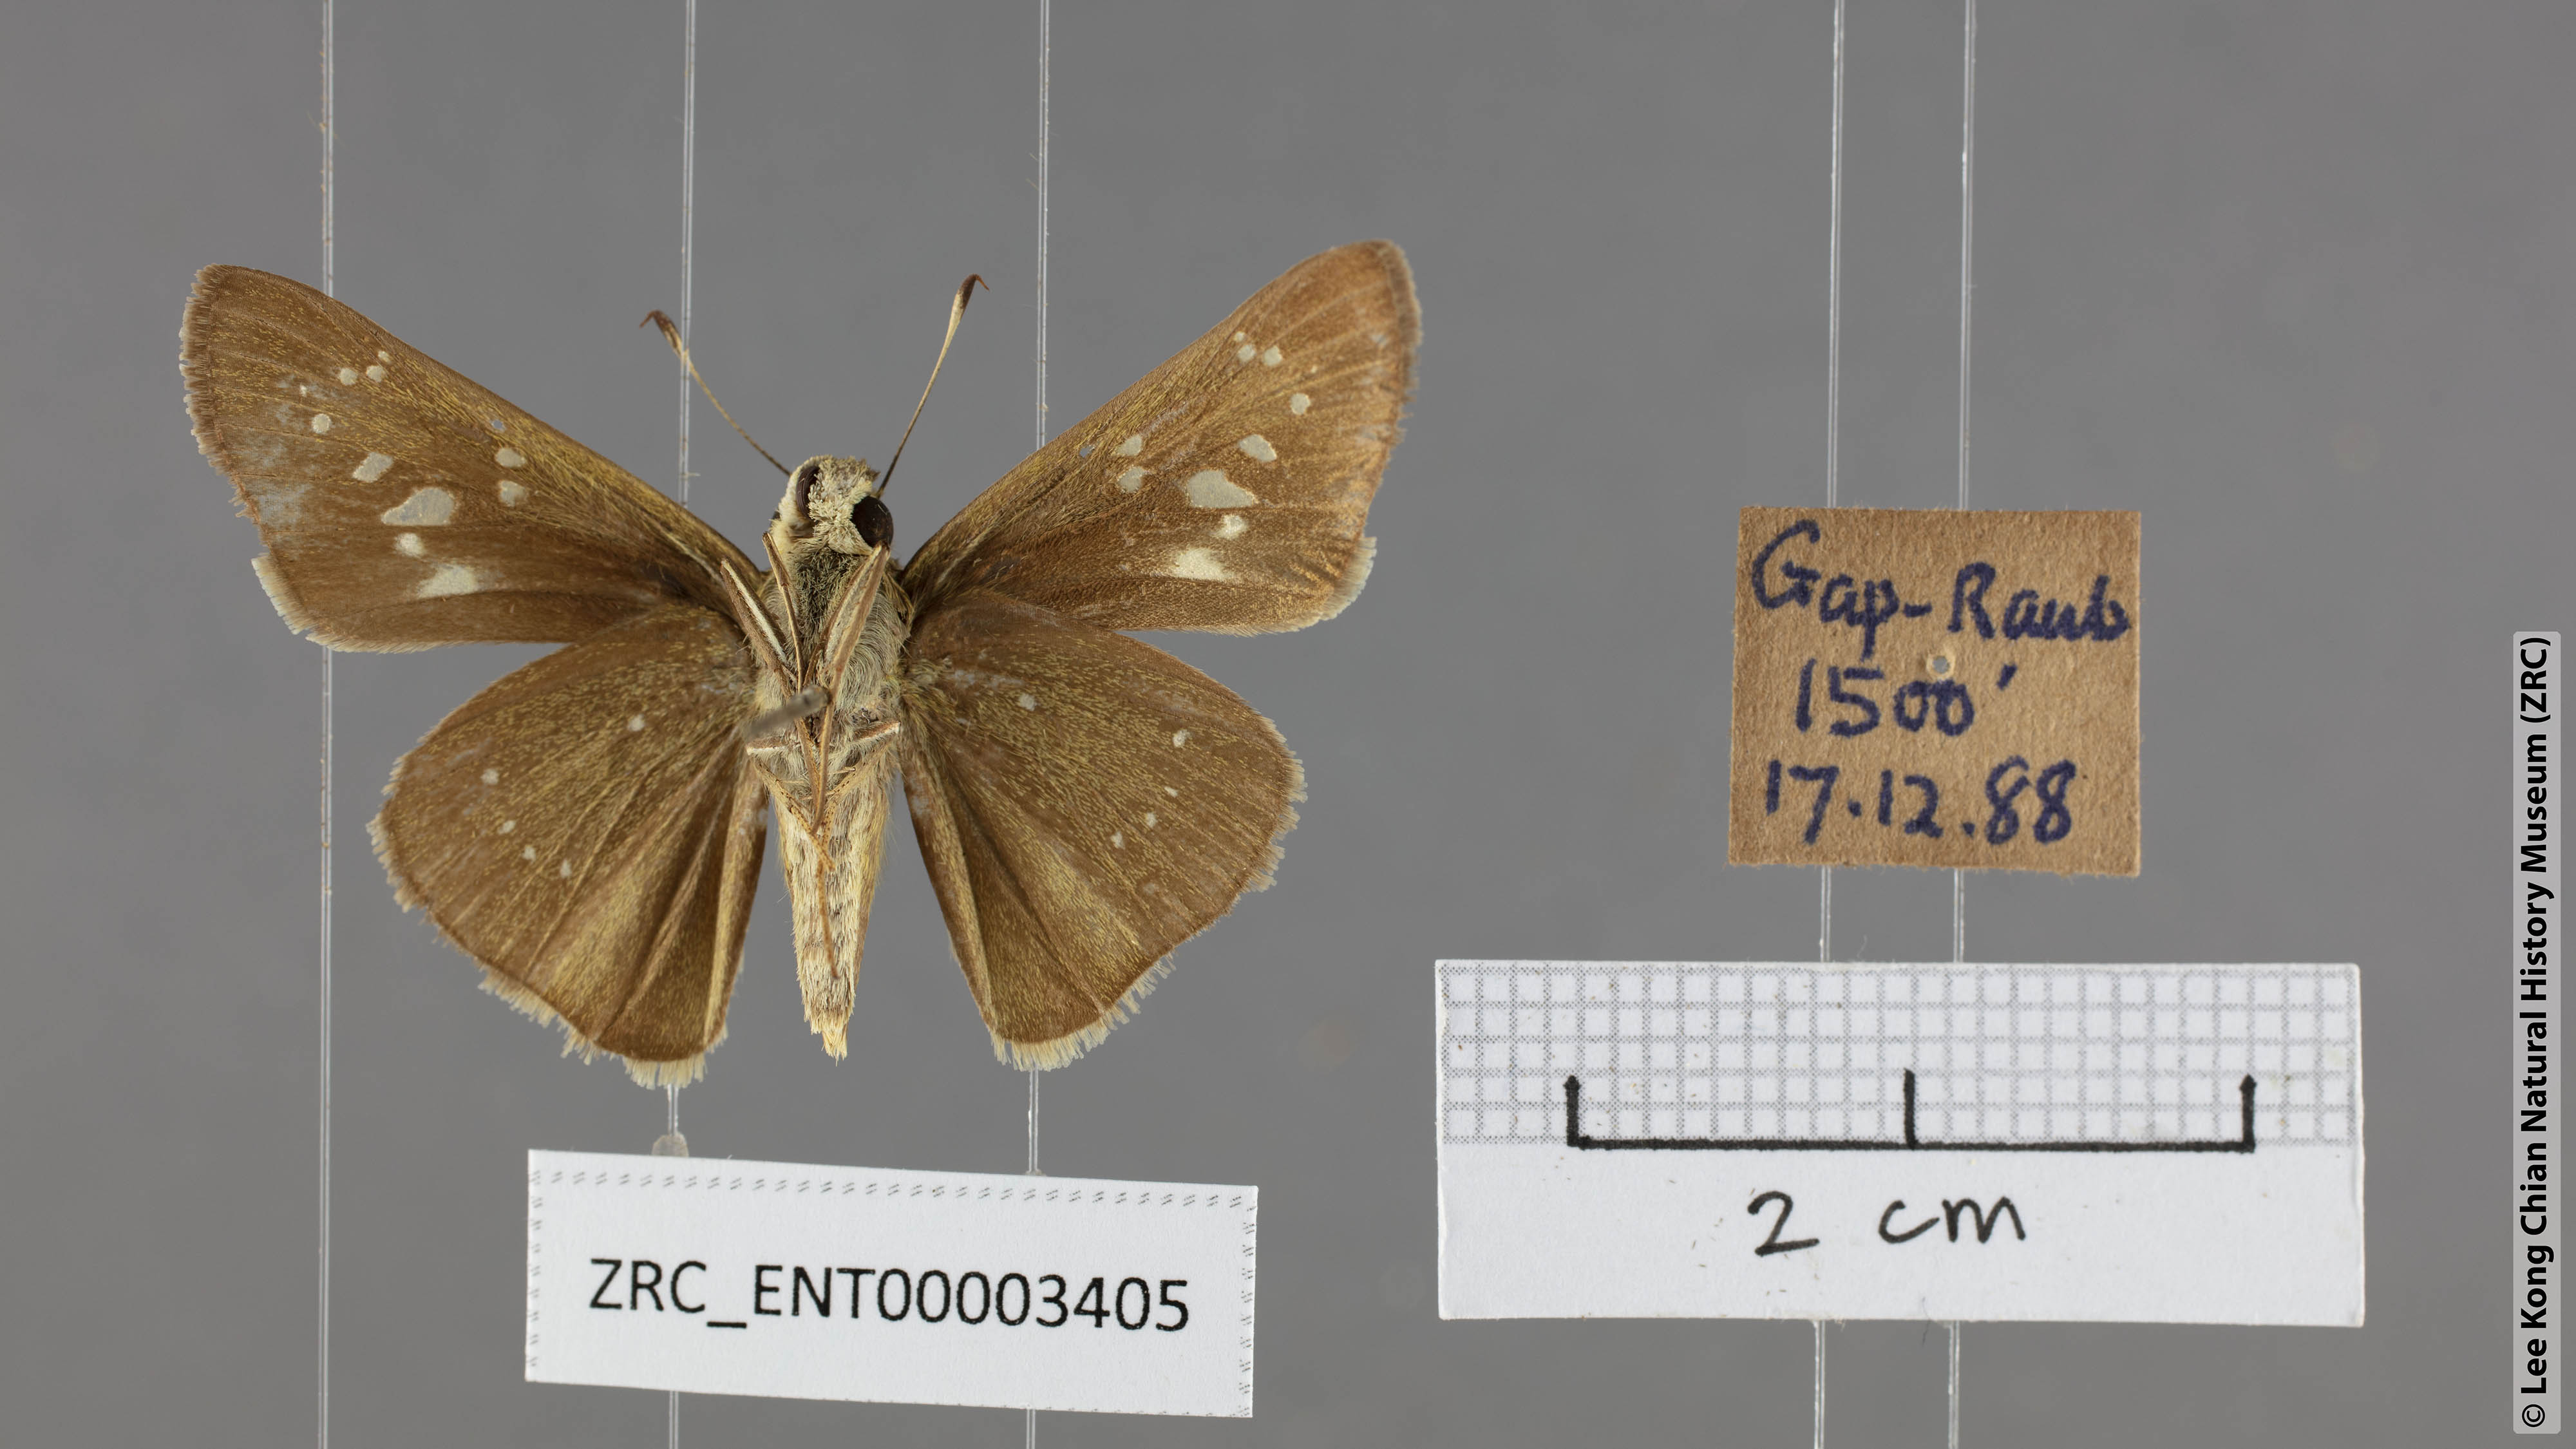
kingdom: Animalia
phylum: Arthropoda
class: Insecta
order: Lepidoptera
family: Hesperiidae
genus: Pelopidas
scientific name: Pelopidas mathias
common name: Black-branded swift
